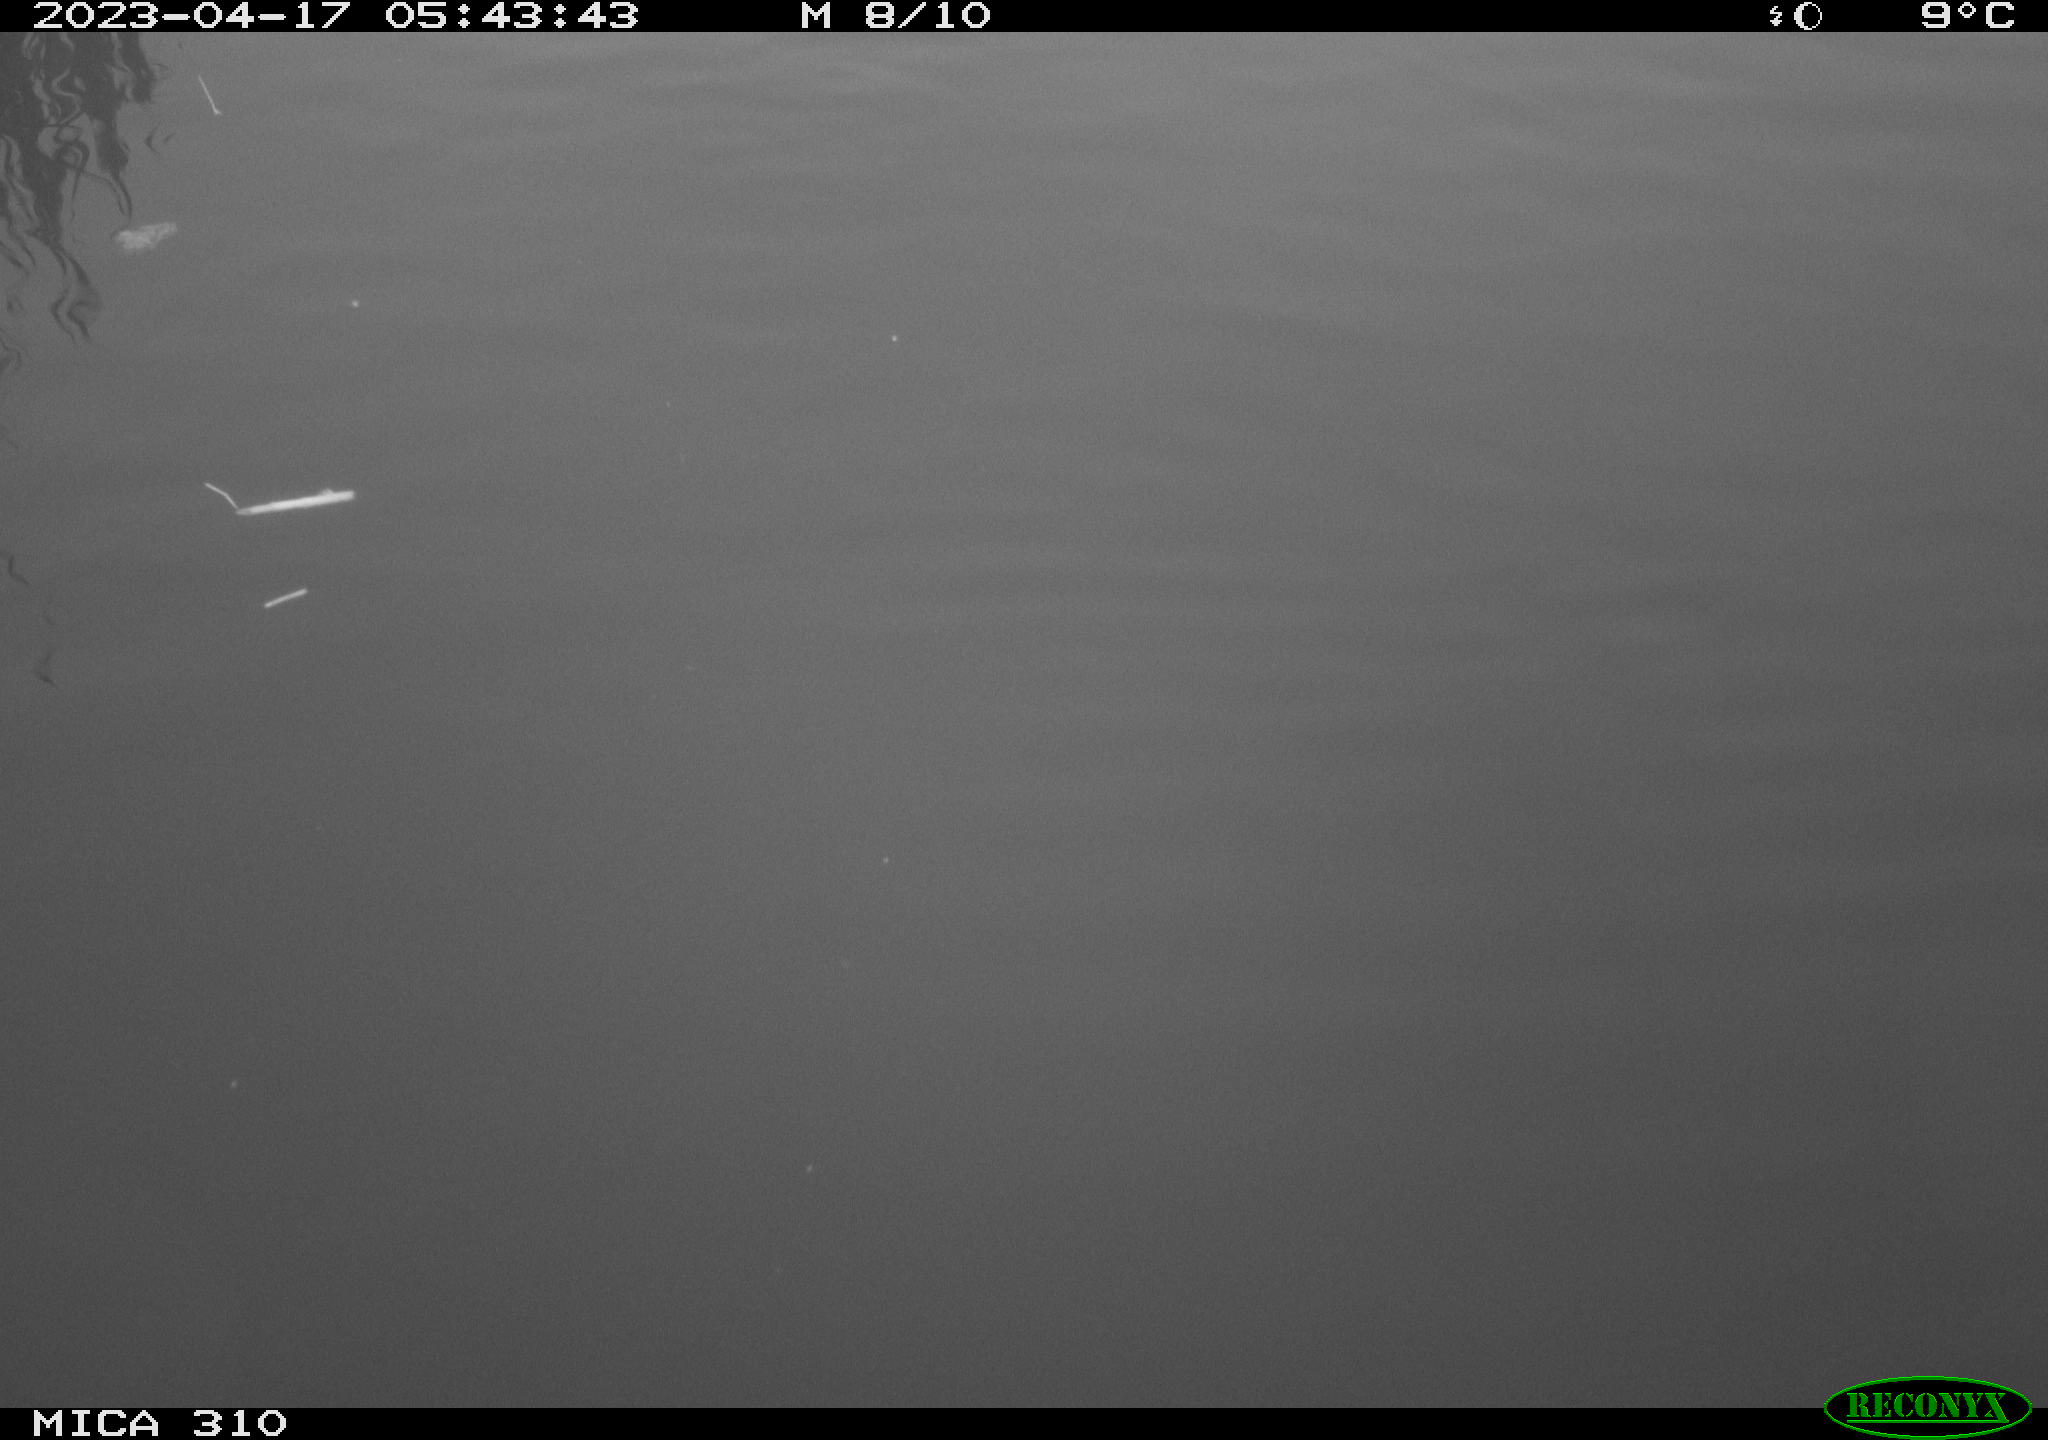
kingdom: Animalia
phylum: Chordata
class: Aves
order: Anseriformes
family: Anatidae
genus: Anas
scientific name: Anas
